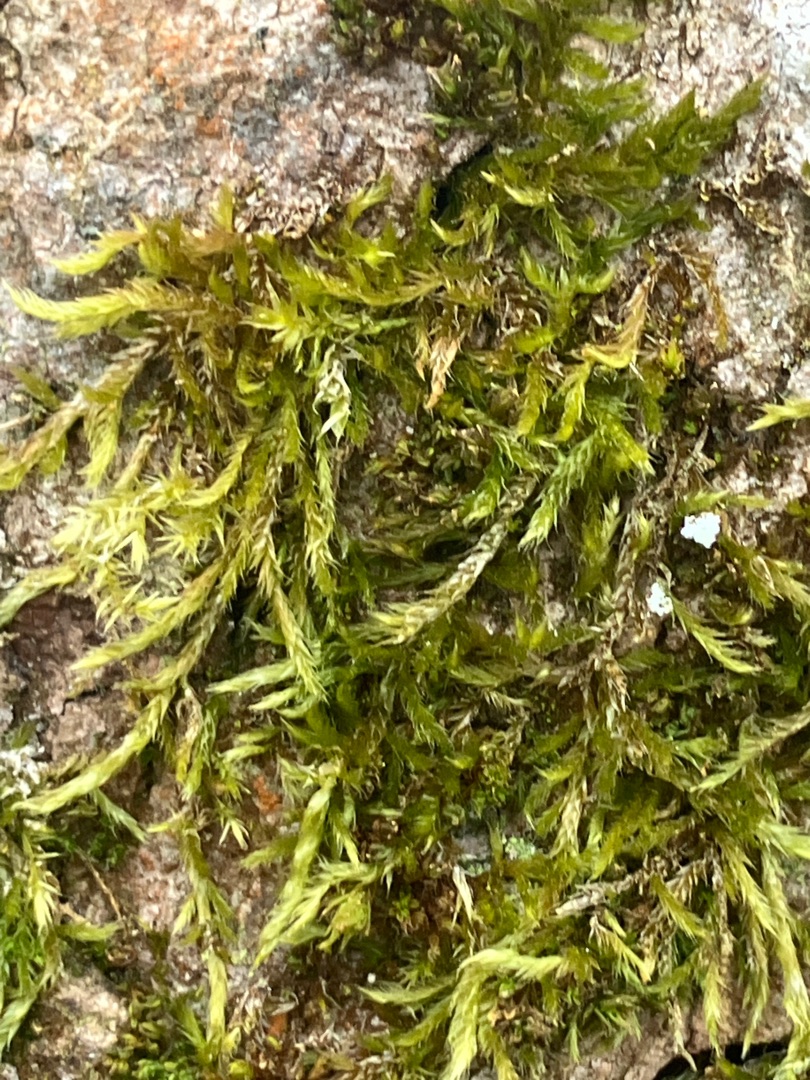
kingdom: Plantae
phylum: Bryophyta
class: Bryopsida
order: Hypnales
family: Hypnaceae
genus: Hypnum
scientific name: Hypnum
